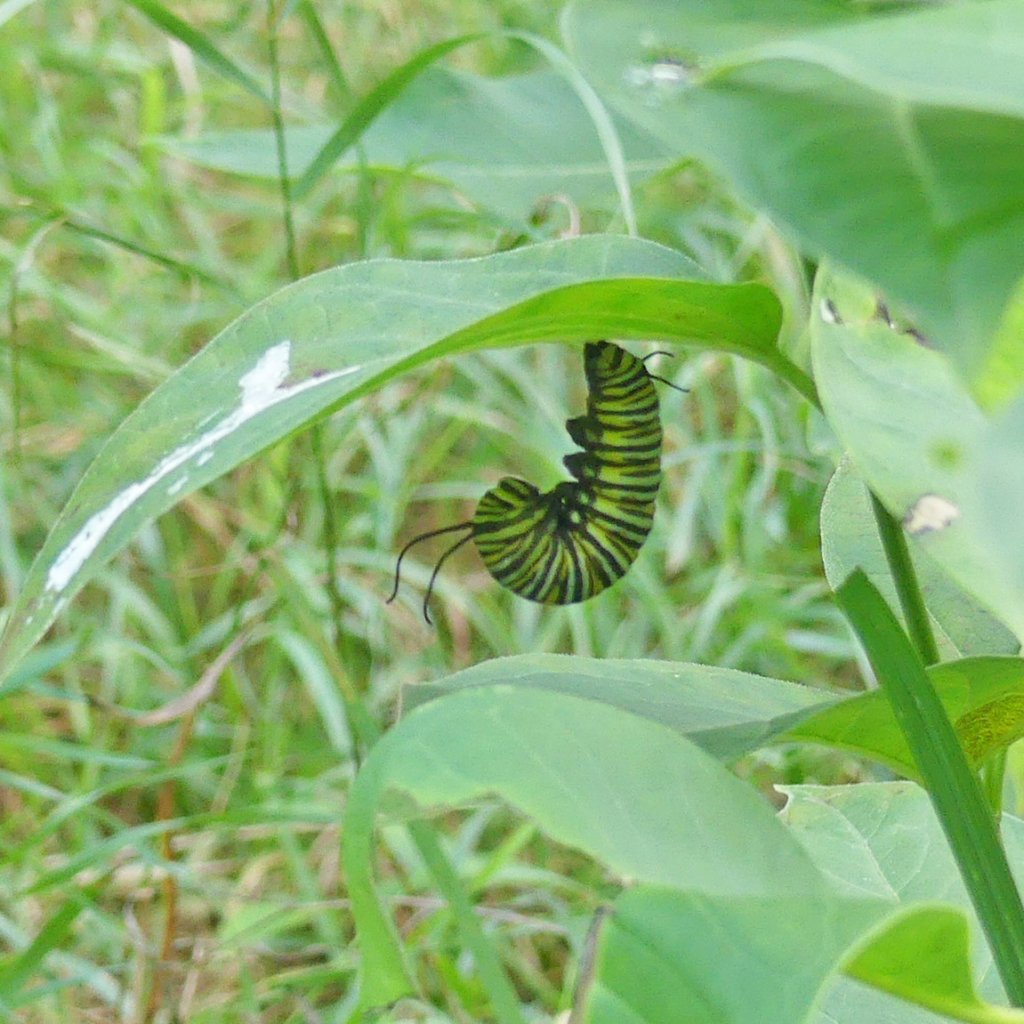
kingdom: Animalia
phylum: Arthropoda
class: Insecta
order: Lepidoptera
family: Nymphalidae
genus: Danaus
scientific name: Danaus plexippus
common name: Monarch
